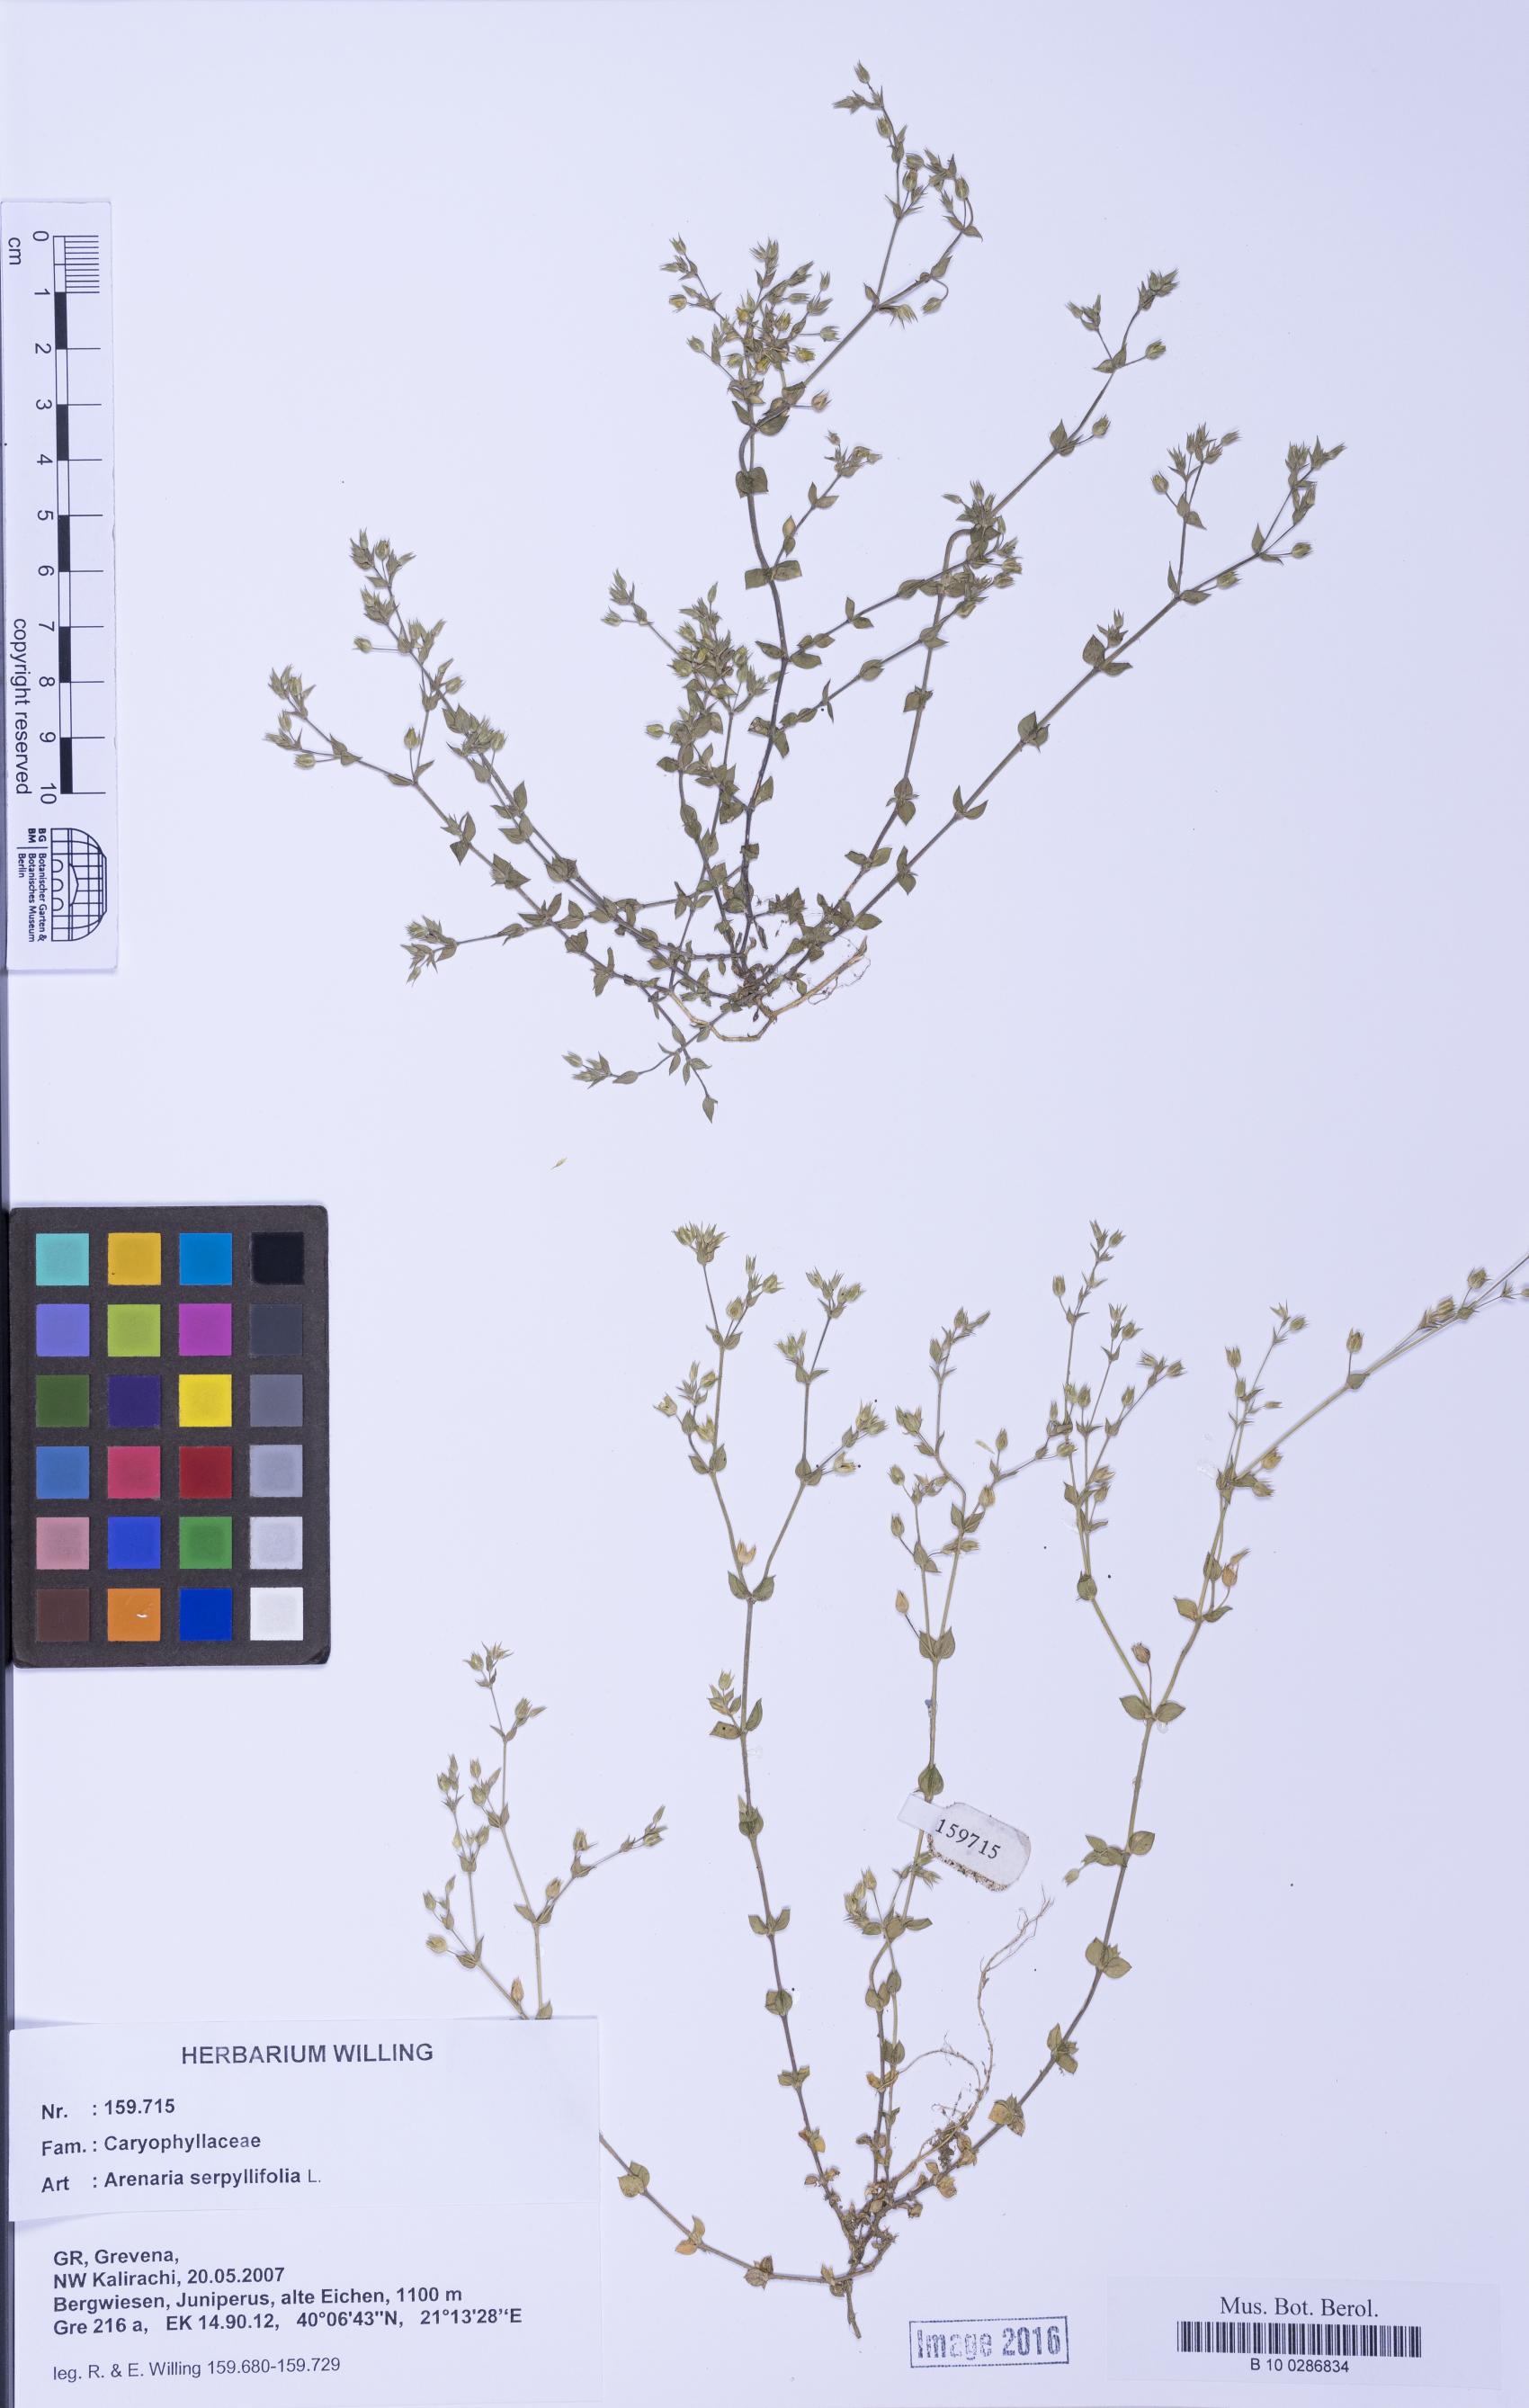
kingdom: Plantae
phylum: Tracheophyta
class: Magnoliopsida
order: Caryophyllales
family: Caryophyllaceae
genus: Arenaria
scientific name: Arenaria serpyllifolia
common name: Thyme-leaved sandwort
